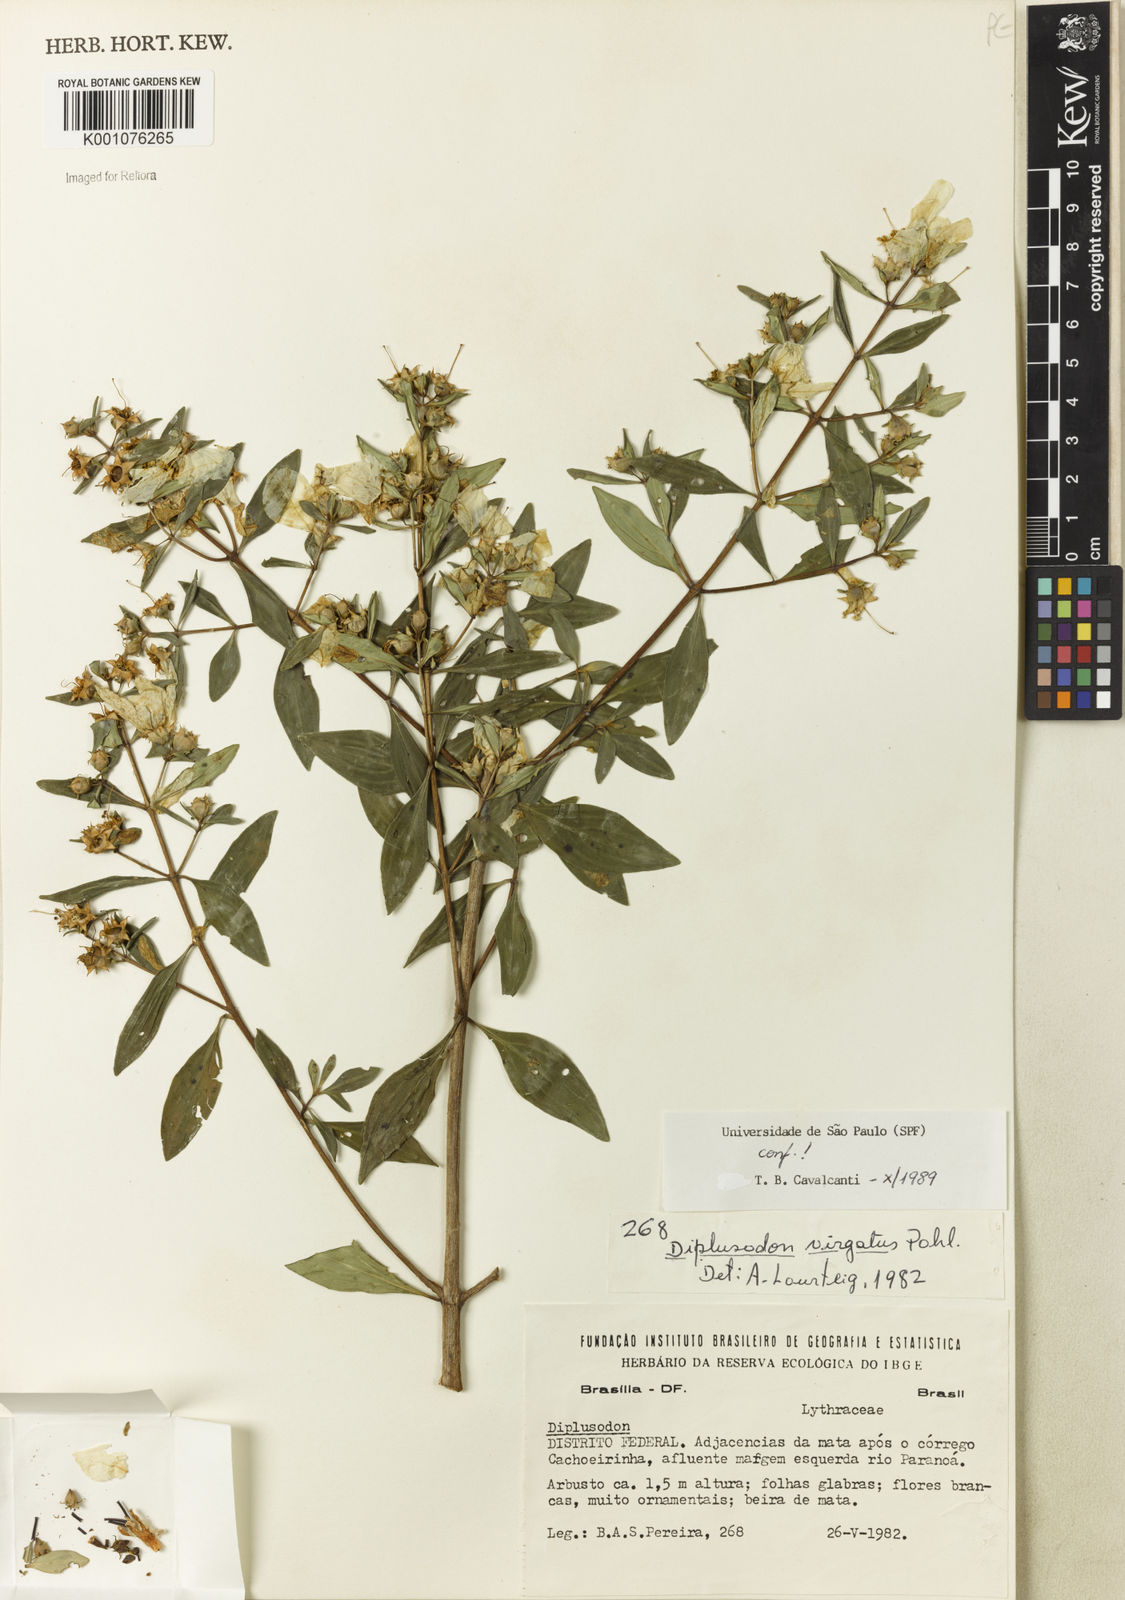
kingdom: Plantae
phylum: Tracheophyta
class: Magnoliopsida
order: Myrtales
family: Lythraceae
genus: Diplusodon
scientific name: Diplusodon virgatus
